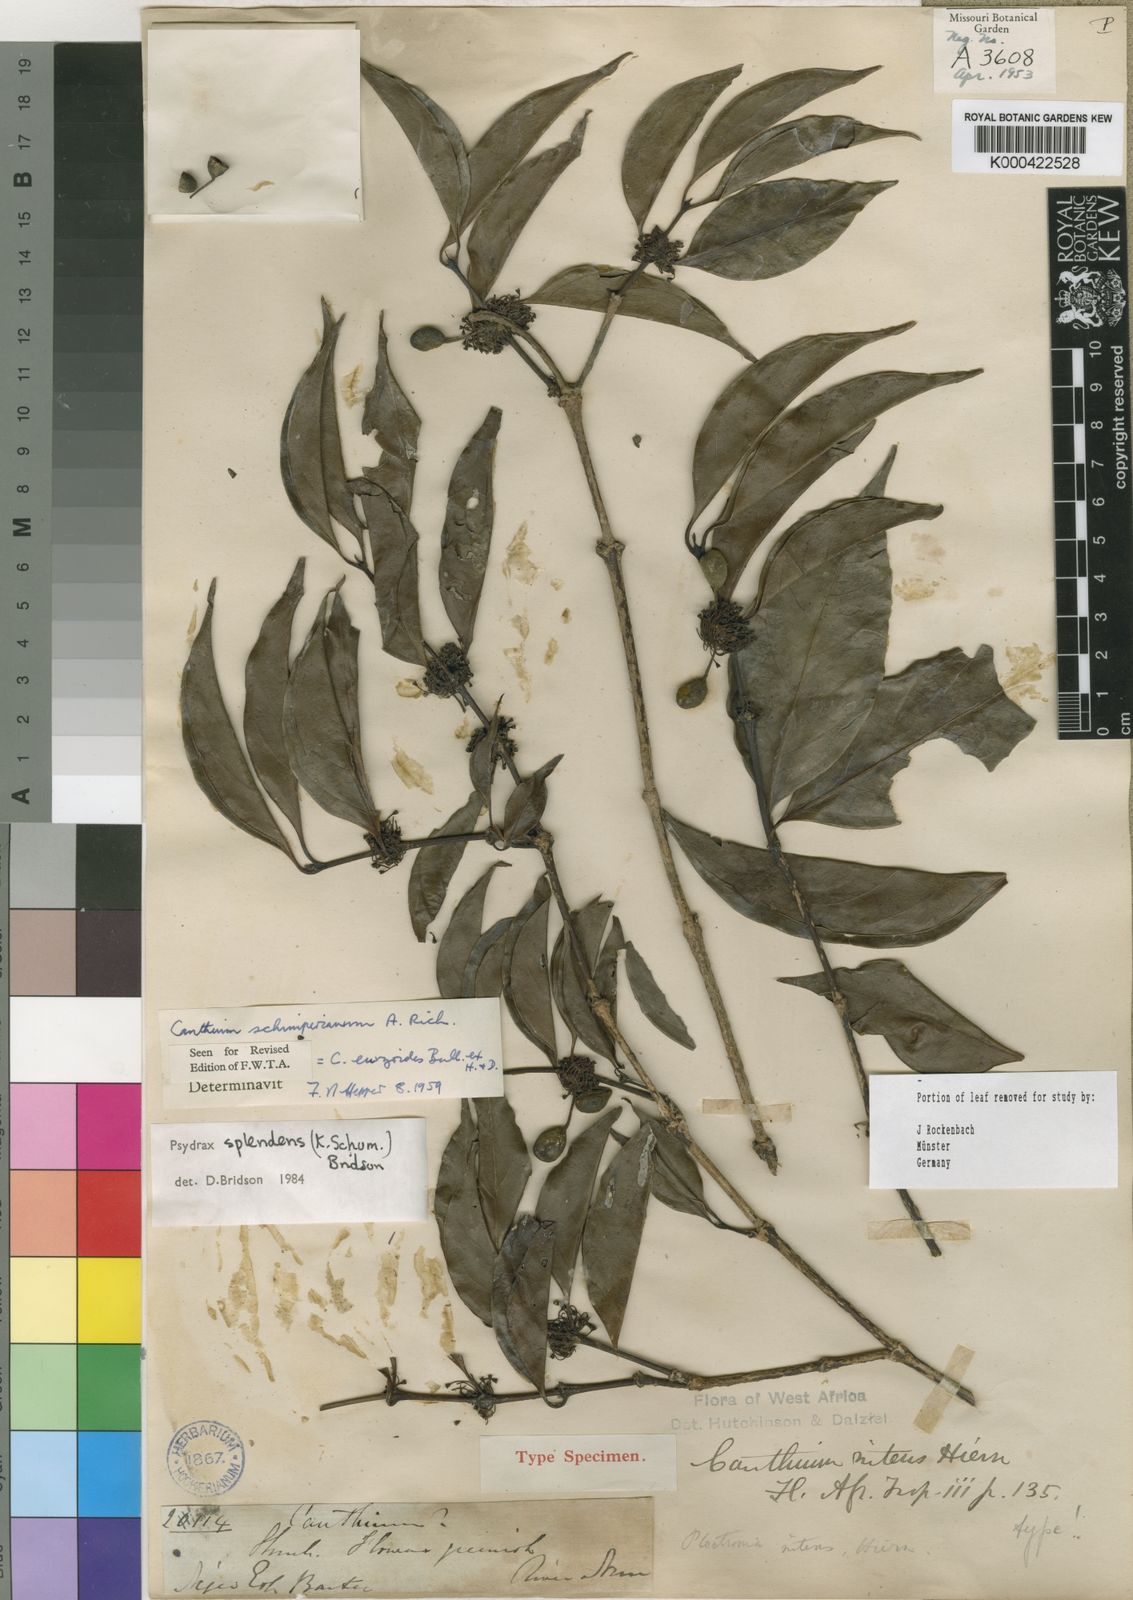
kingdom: Plantae
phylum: Tracheophyta
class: Magnoliopsida
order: Gentianales
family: Rubiaceae
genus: Psydrax
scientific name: Psydrax splendens
